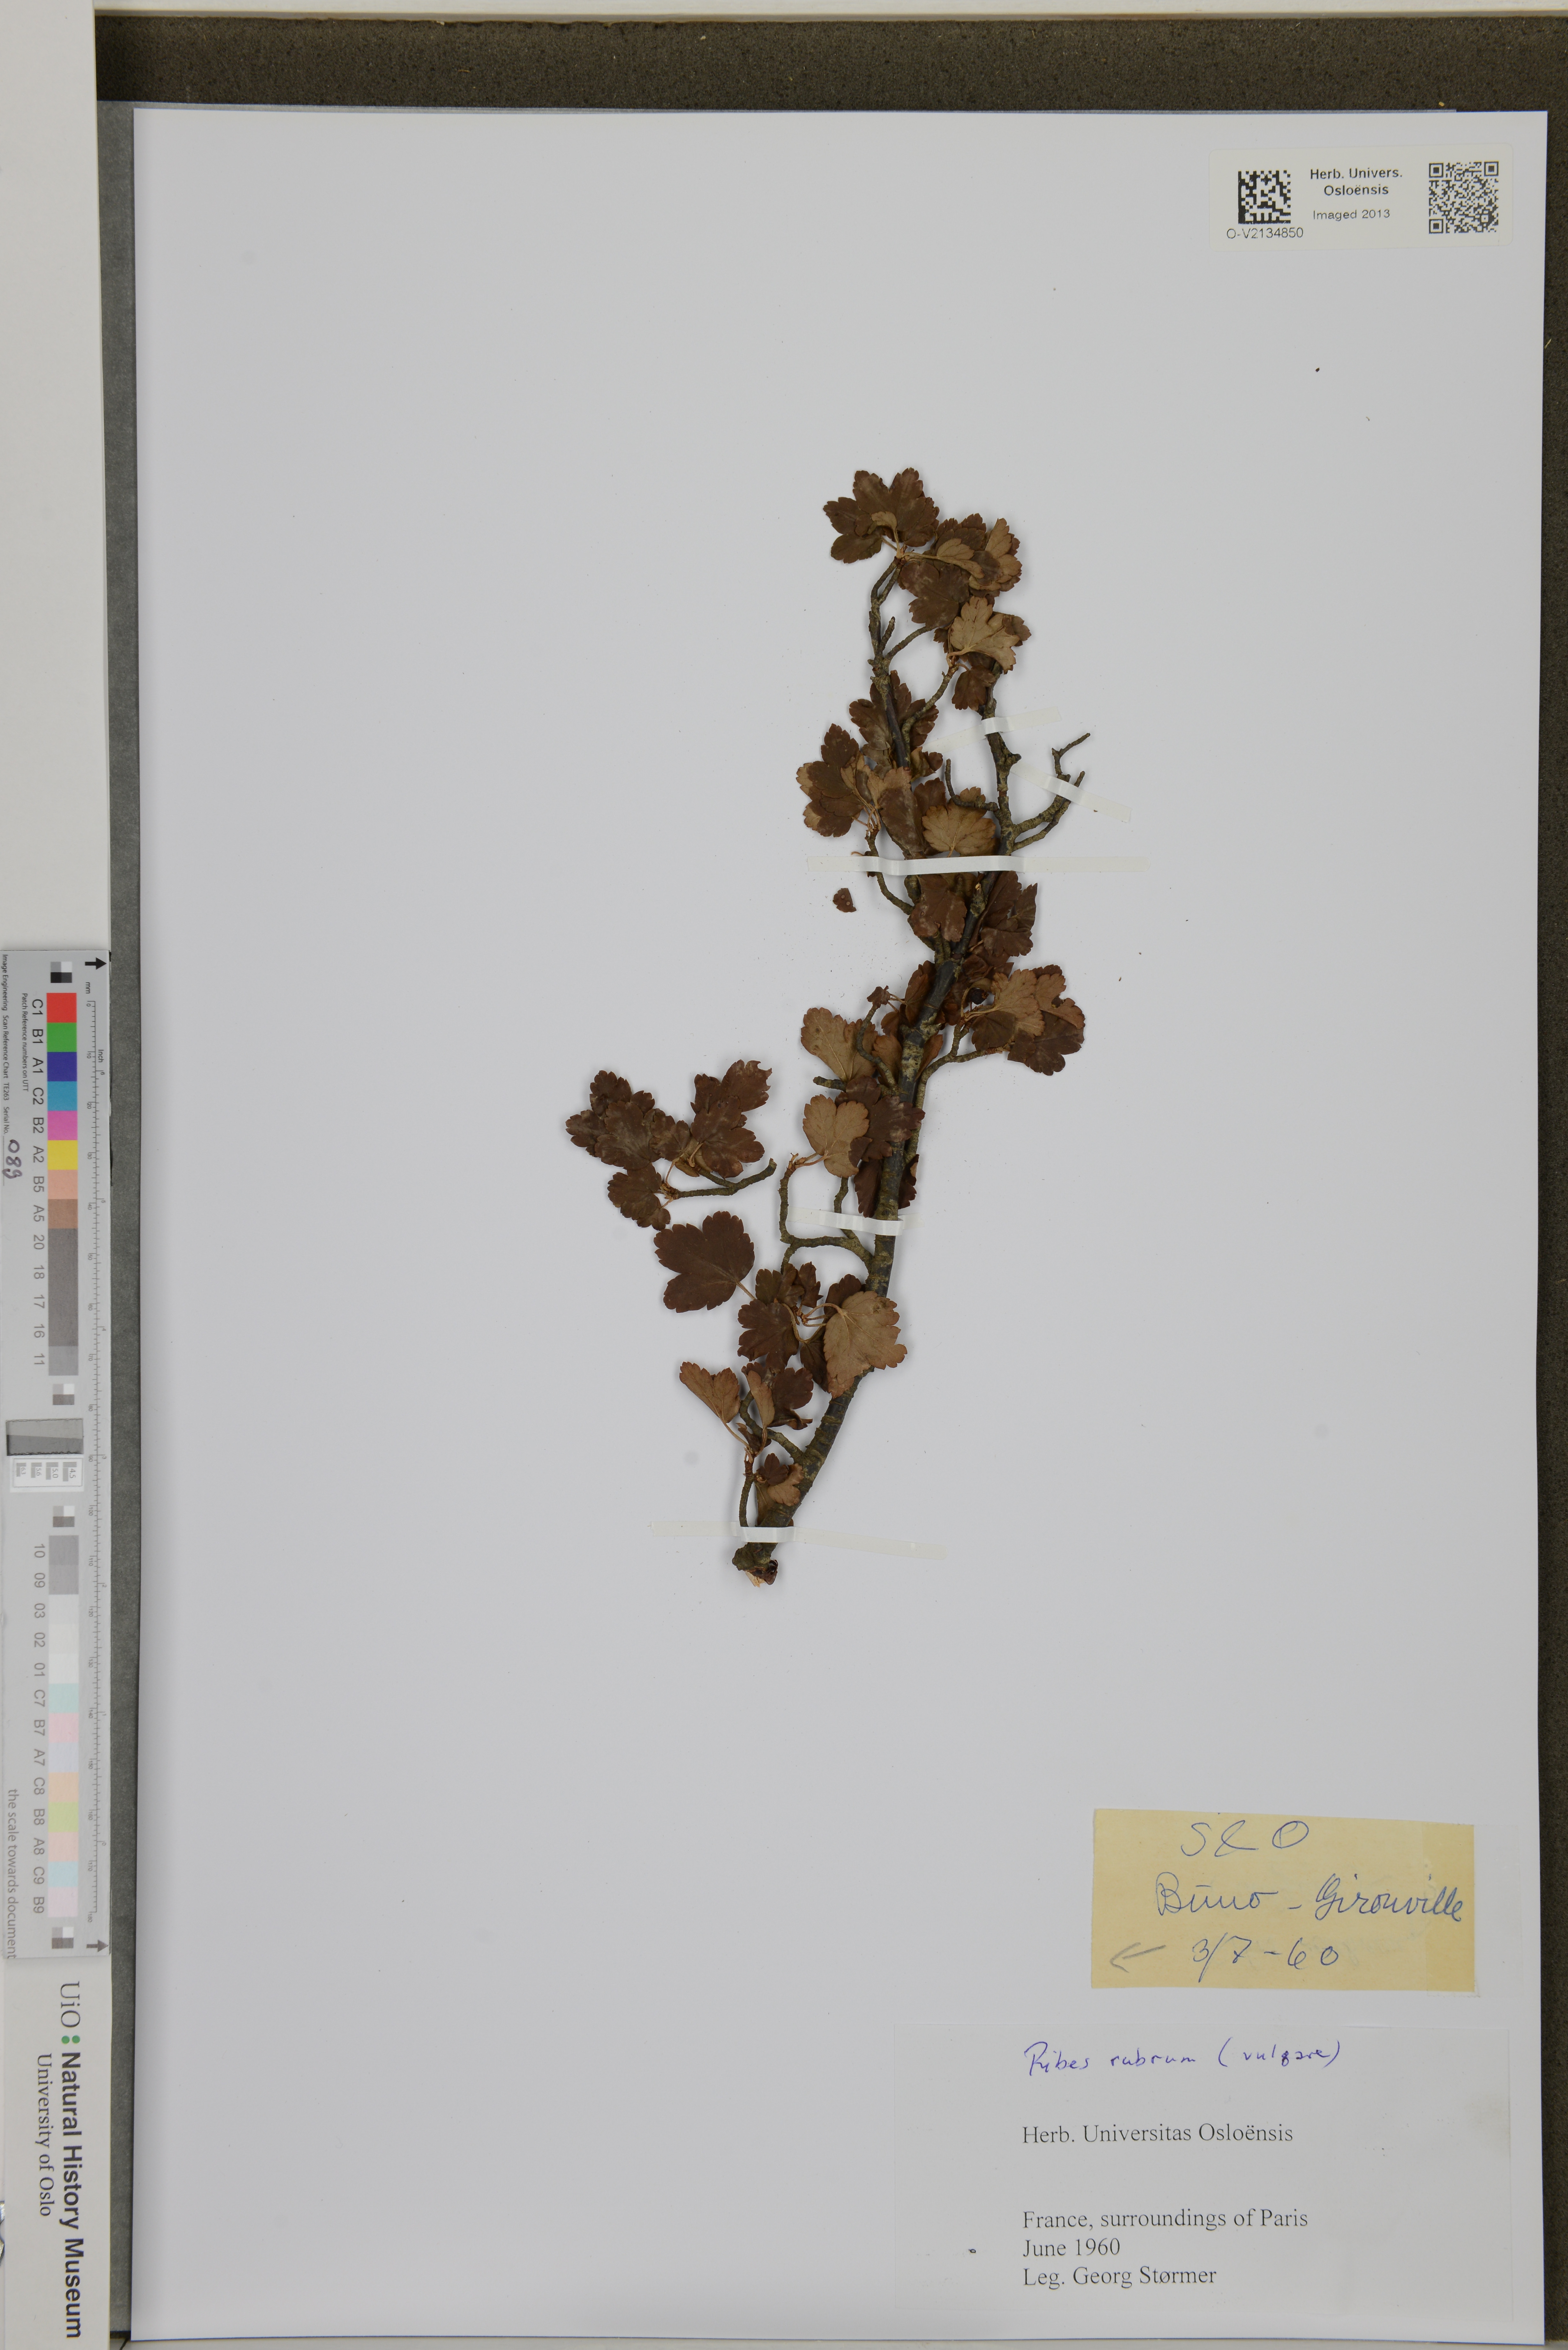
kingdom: Plantae
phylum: Tracheophyta
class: Magnoliopsida
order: Saxifragales
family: Grossulariaceae
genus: Ribes
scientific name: Ribes rubrum
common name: Red currant
